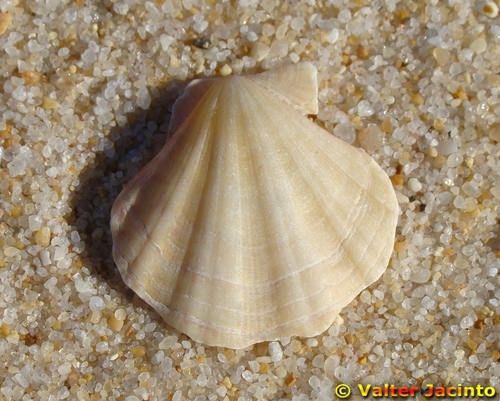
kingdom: Animalia
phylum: Mollusca
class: Bivalvia
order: Pectinida
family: Pectinidae
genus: Flexopecten
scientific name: Flexopecten glaber
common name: Smooth scallop
